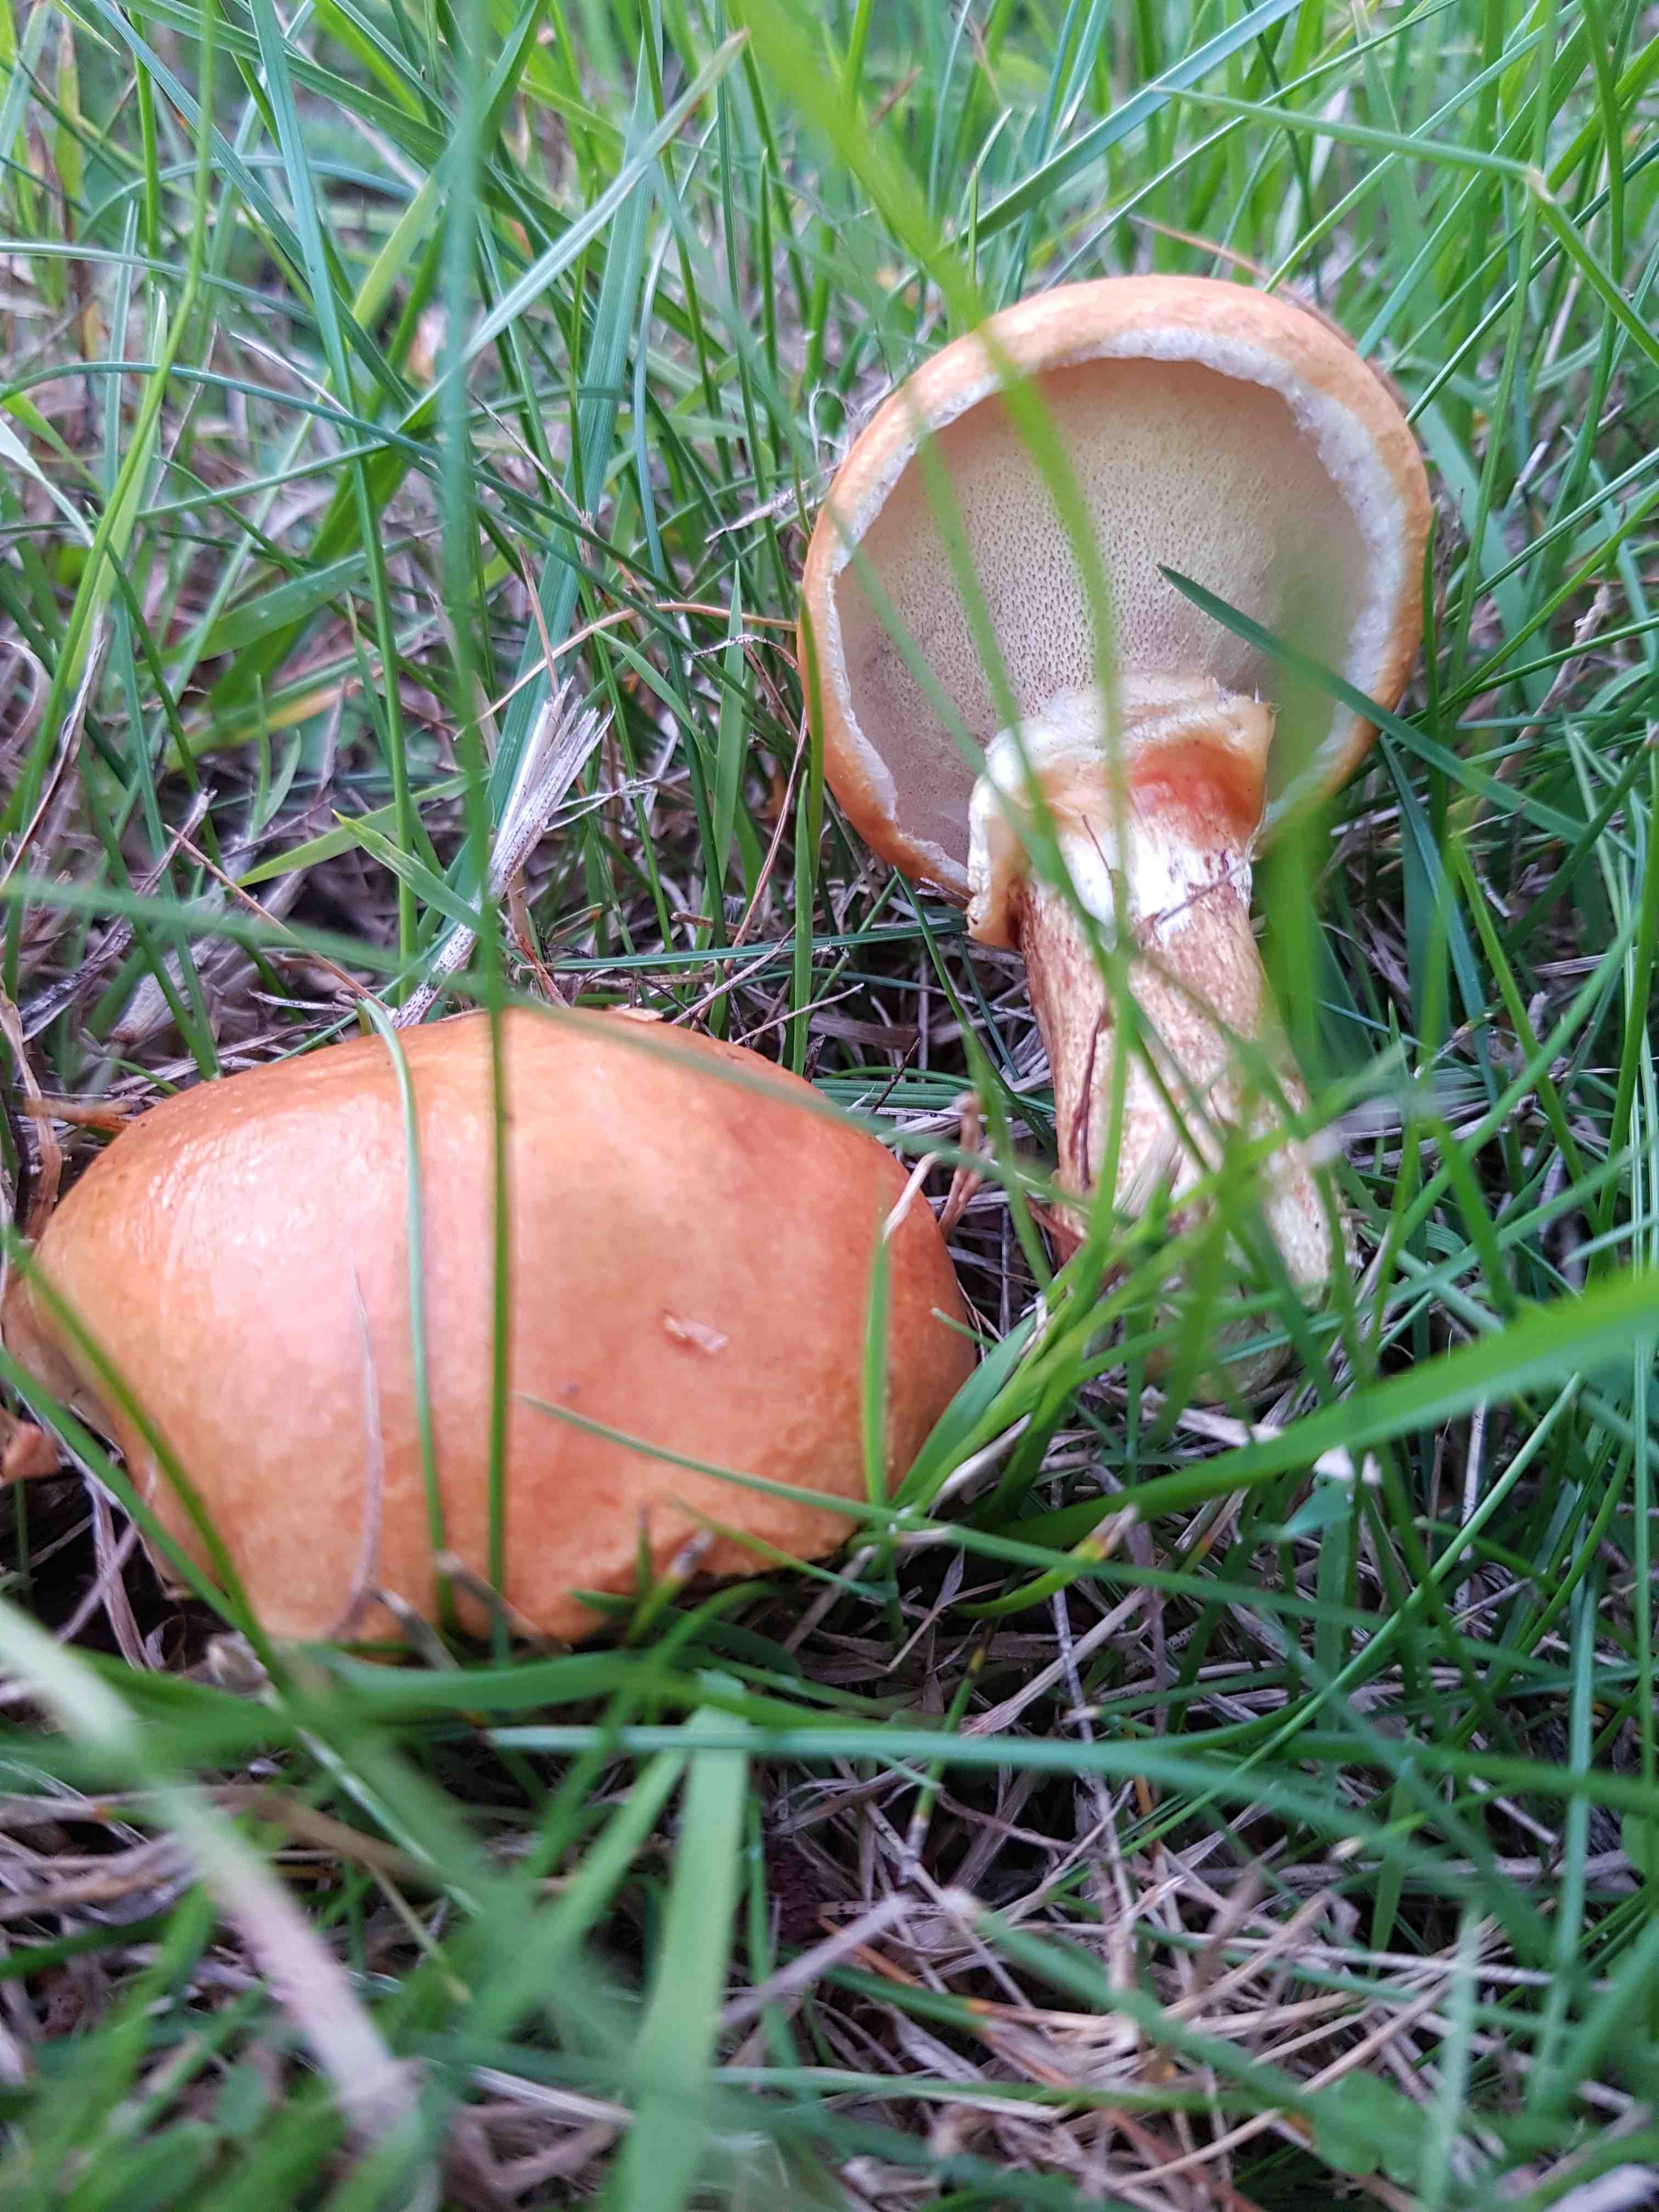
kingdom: Fungi
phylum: Basidiomycota
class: Agaricomycetes
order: Boletales
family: Suillaceae
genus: Suillus
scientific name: Suillus grevillei
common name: lærke-slimrørhat
